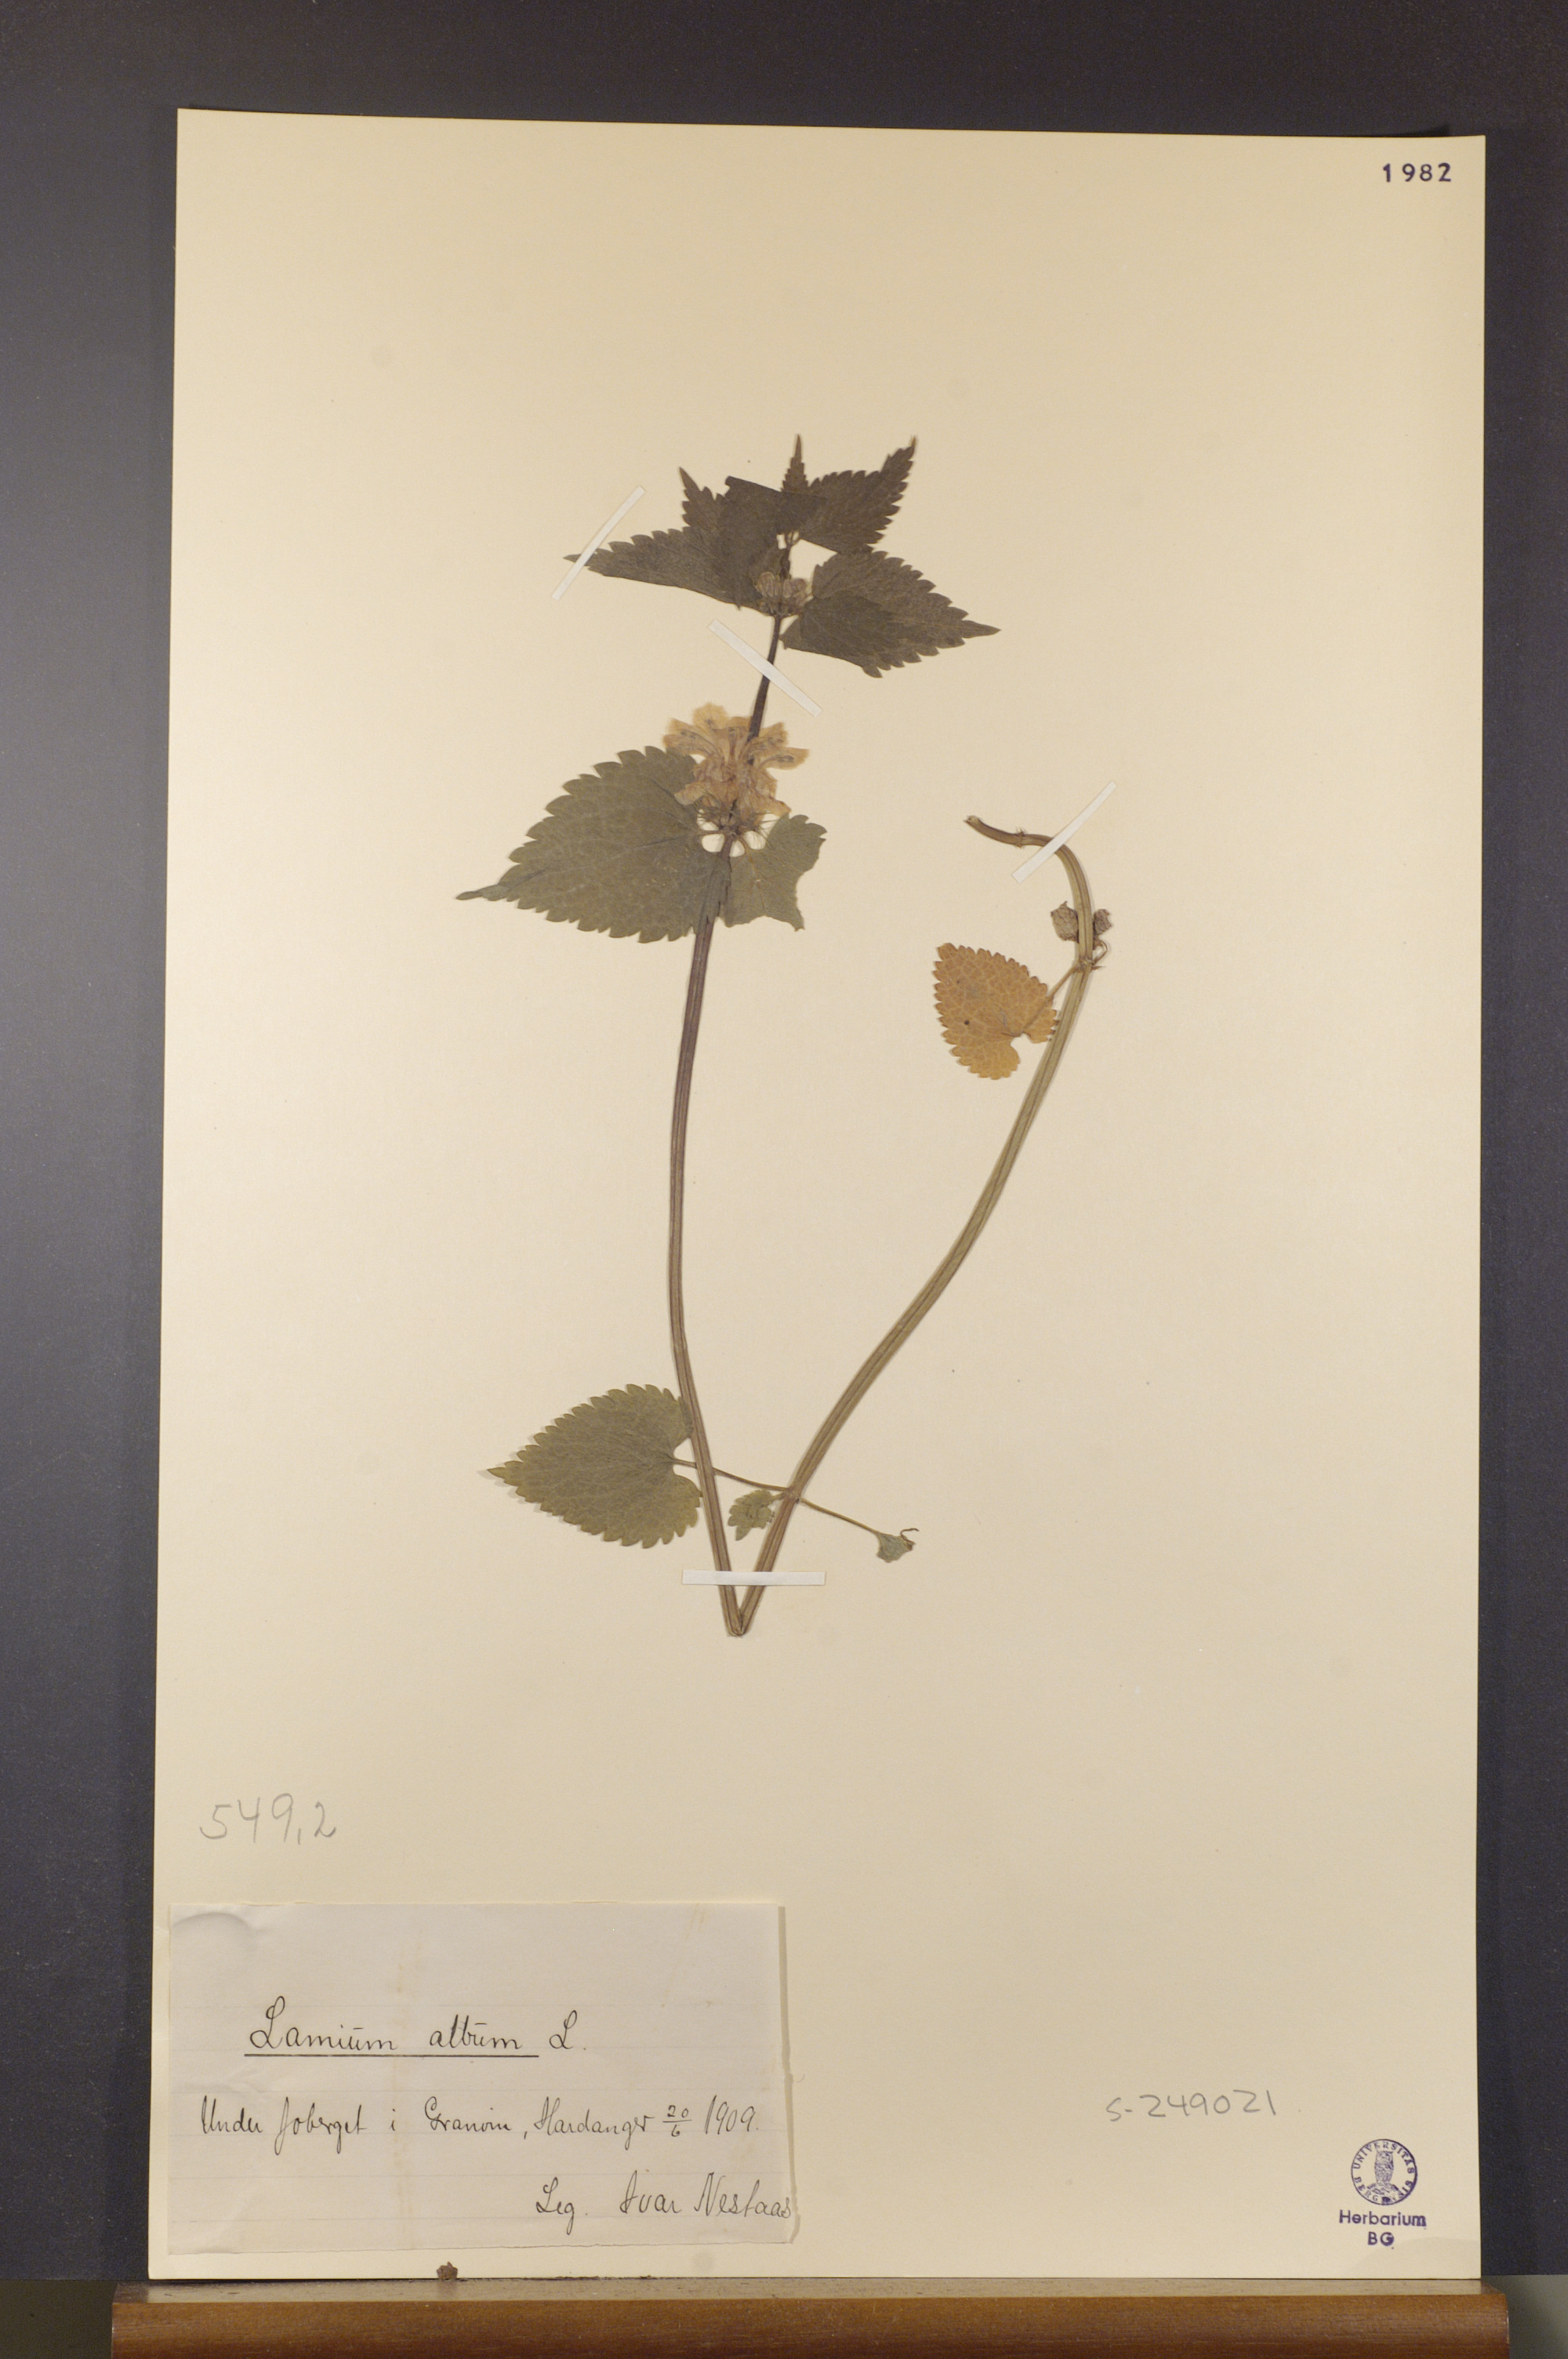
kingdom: Plantae
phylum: Tracheophyta
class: Magnoliopsida
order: Lamiales
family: Lamiaceae
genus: Lamium
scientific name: Lamium album
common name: White dead-nettle
